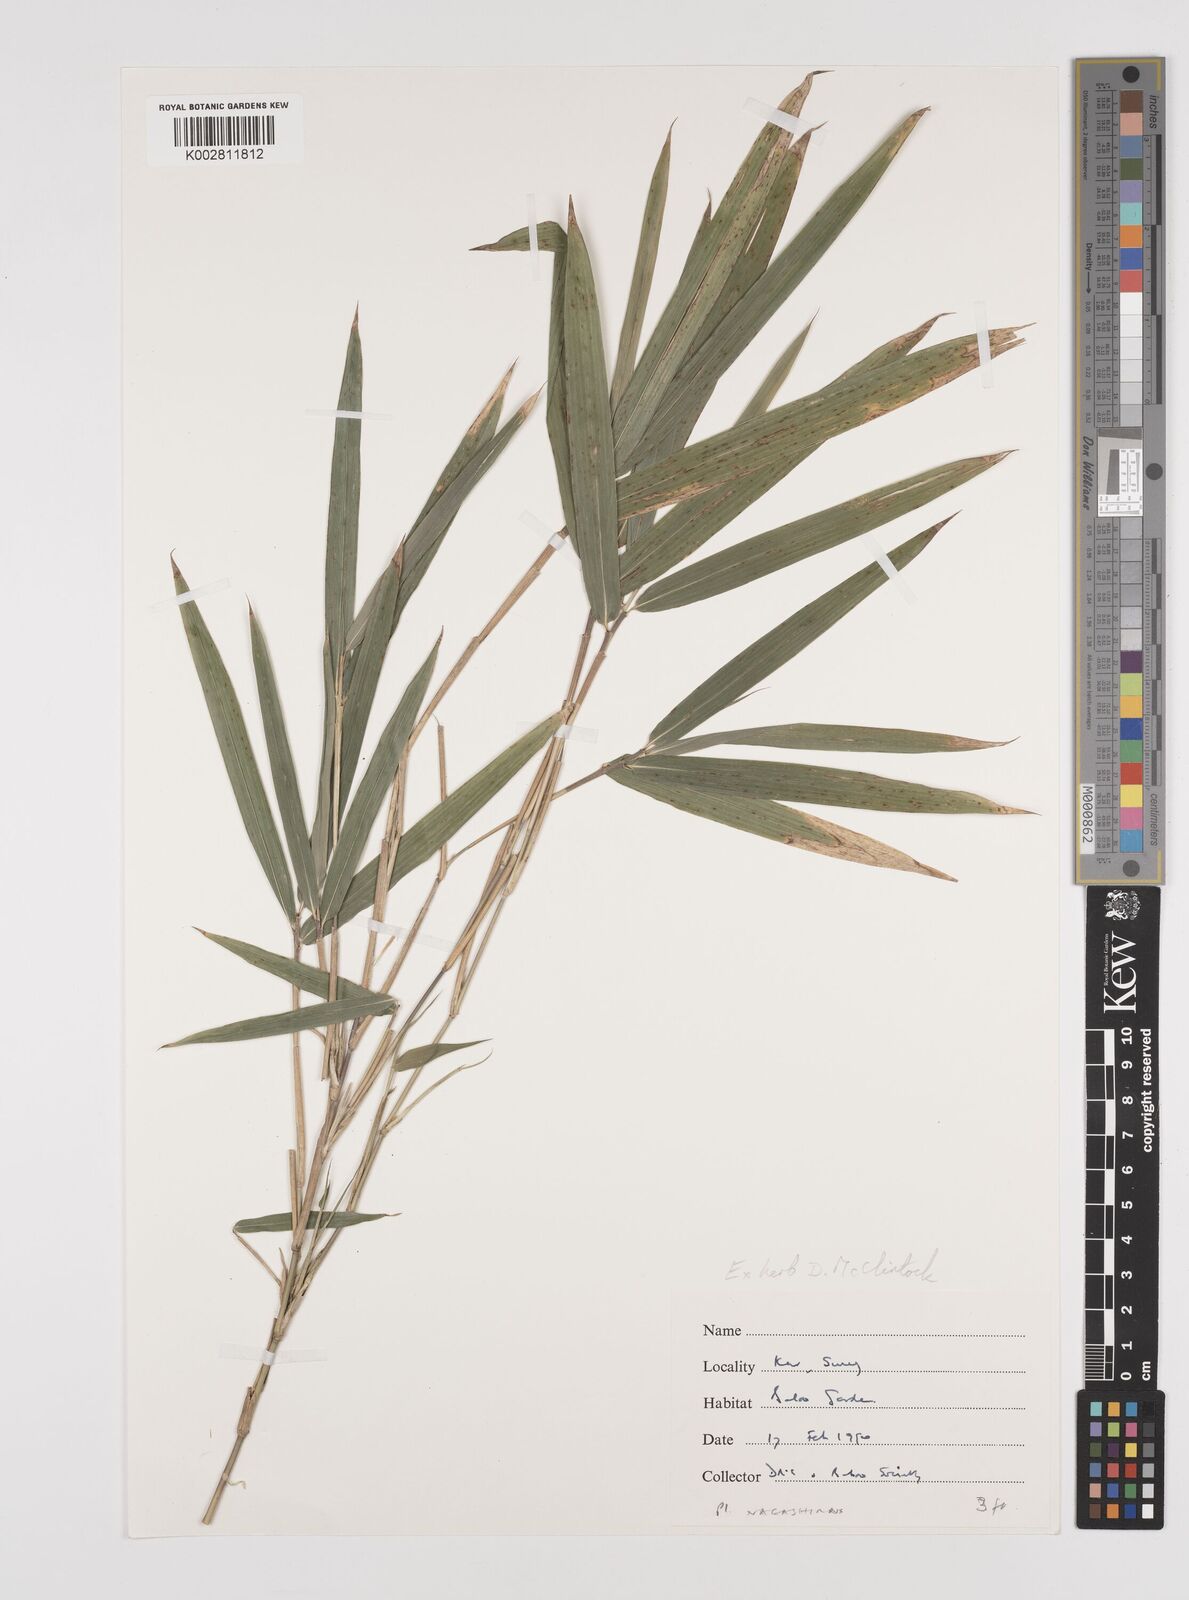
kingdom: Plantae
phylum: Tracheophyta
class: Liliopsida
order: Poales
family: Poaceae
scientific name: Poaceae
